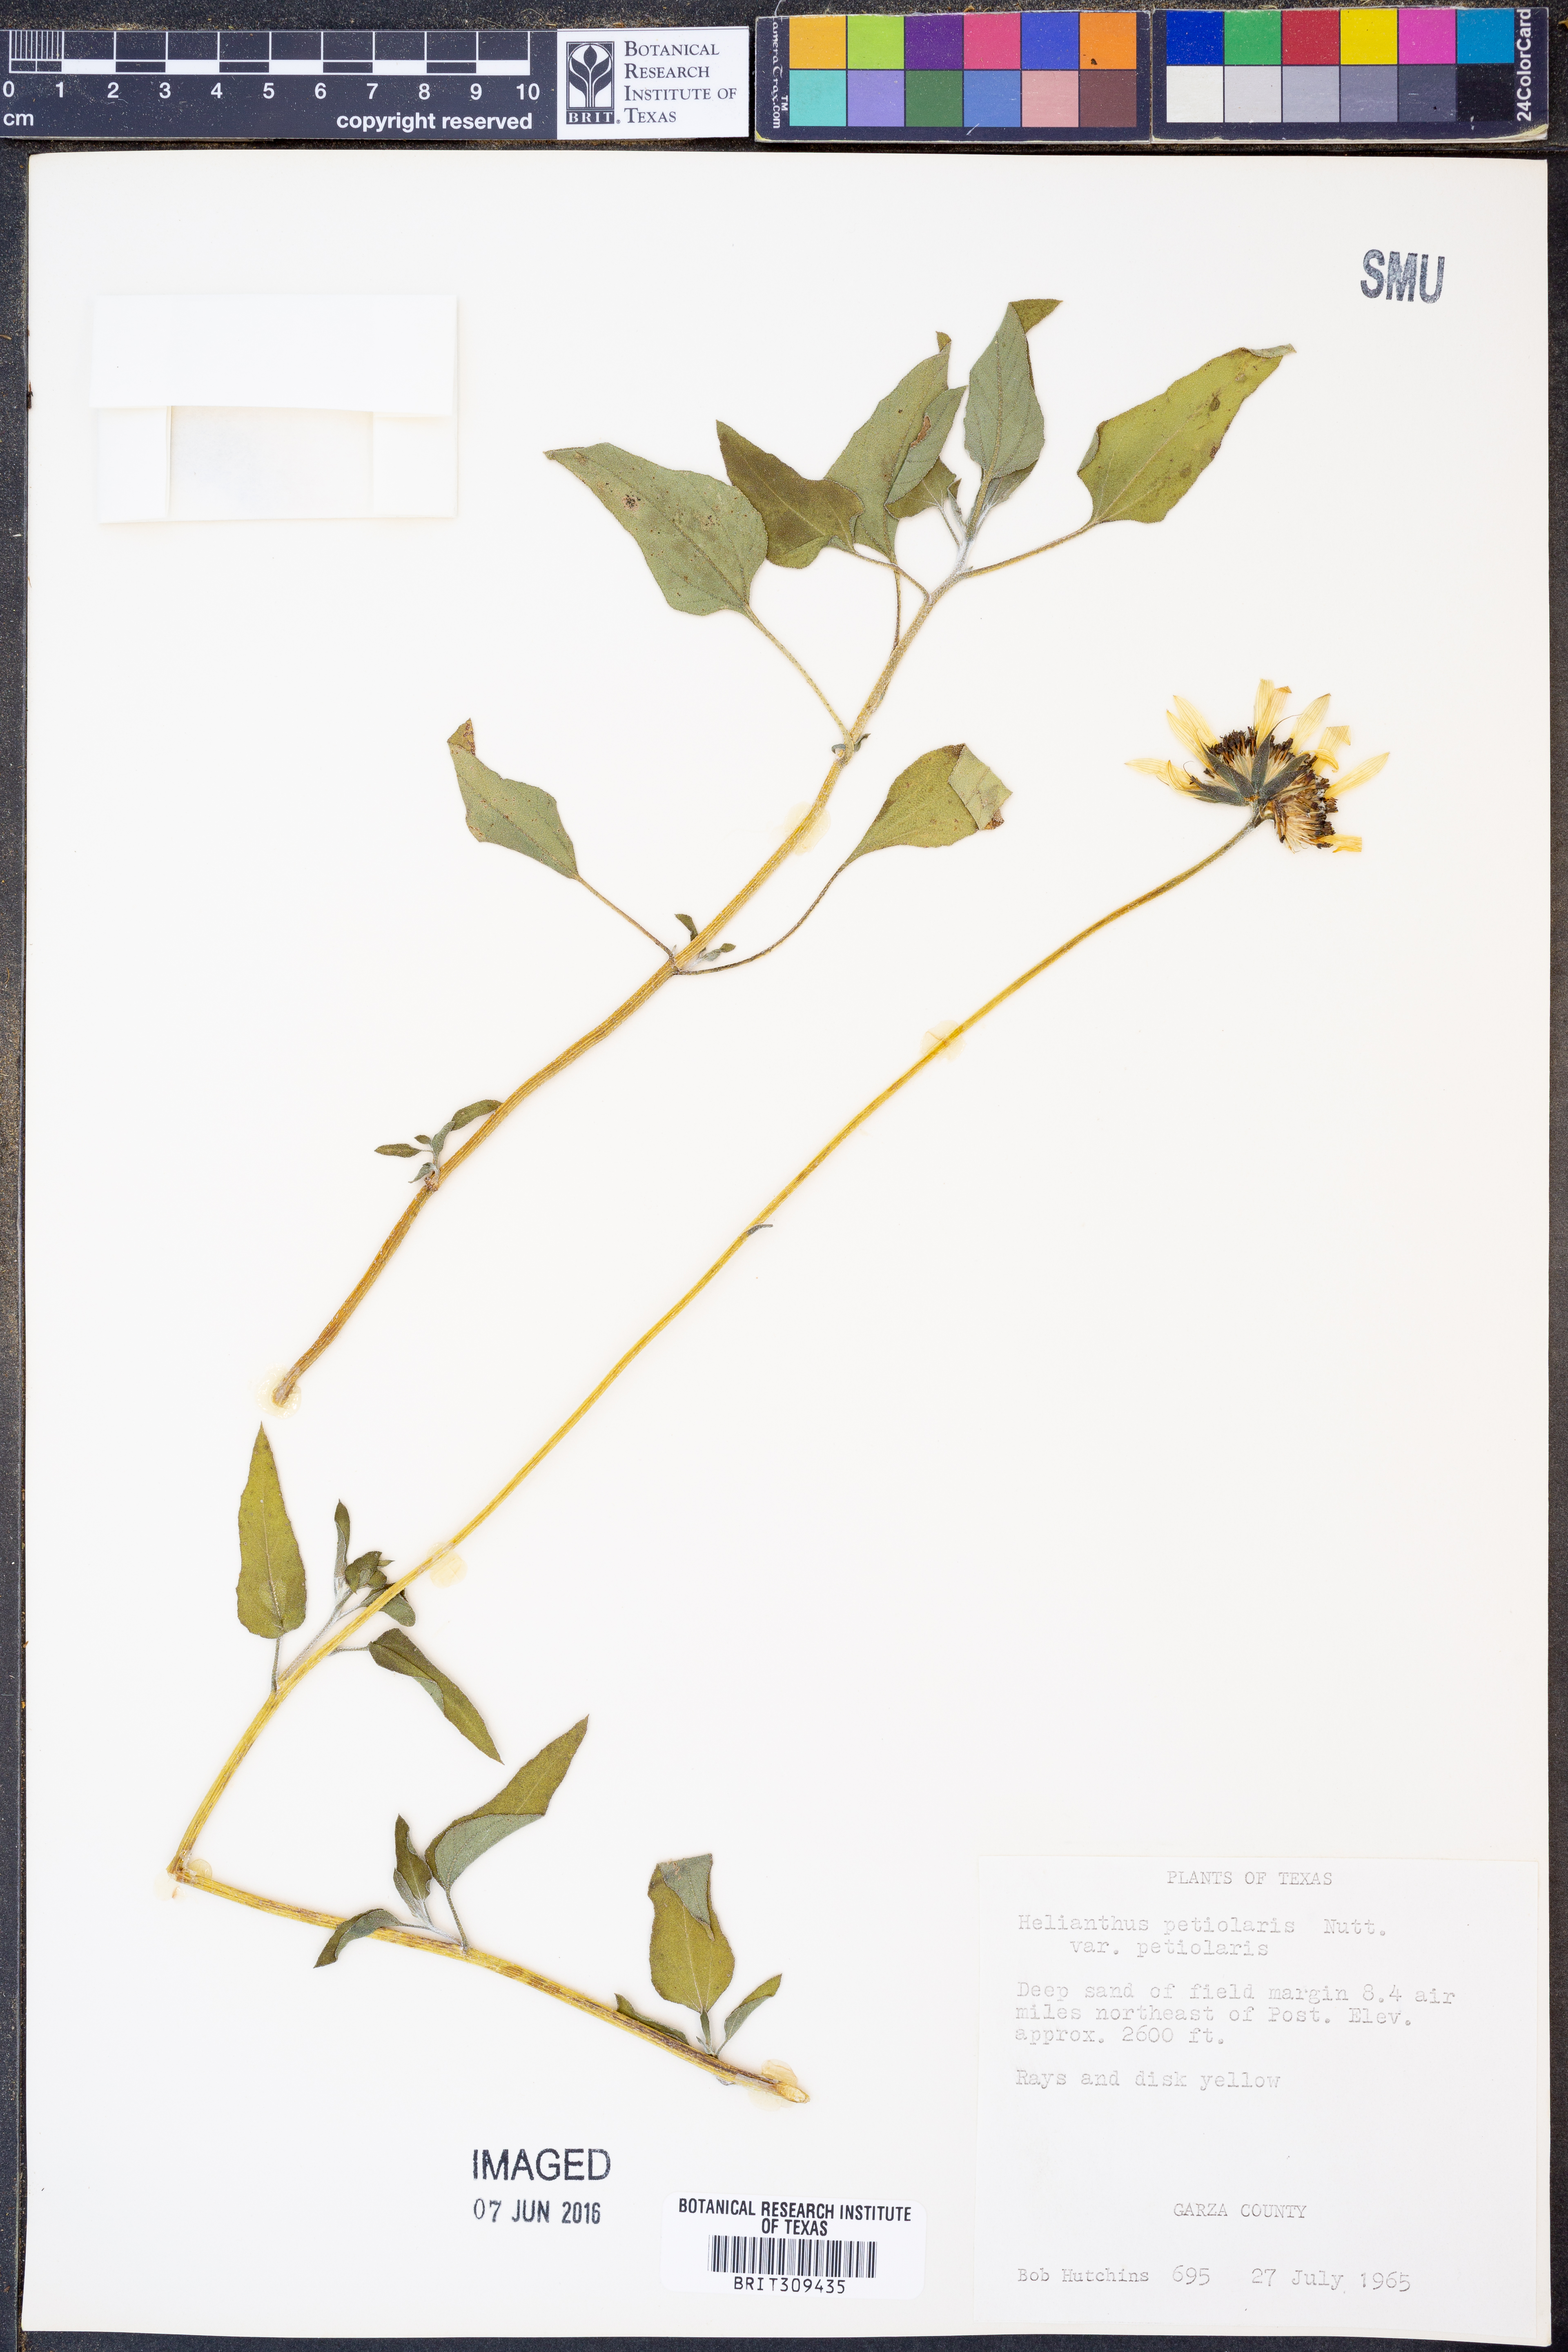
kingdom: Plantae
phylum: Tracheophyta
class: Magnoliopsida
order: Asterales
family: Asteraceae
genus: Helianthus
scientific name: Helianthus petiolaris
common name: Lesser sunflower
